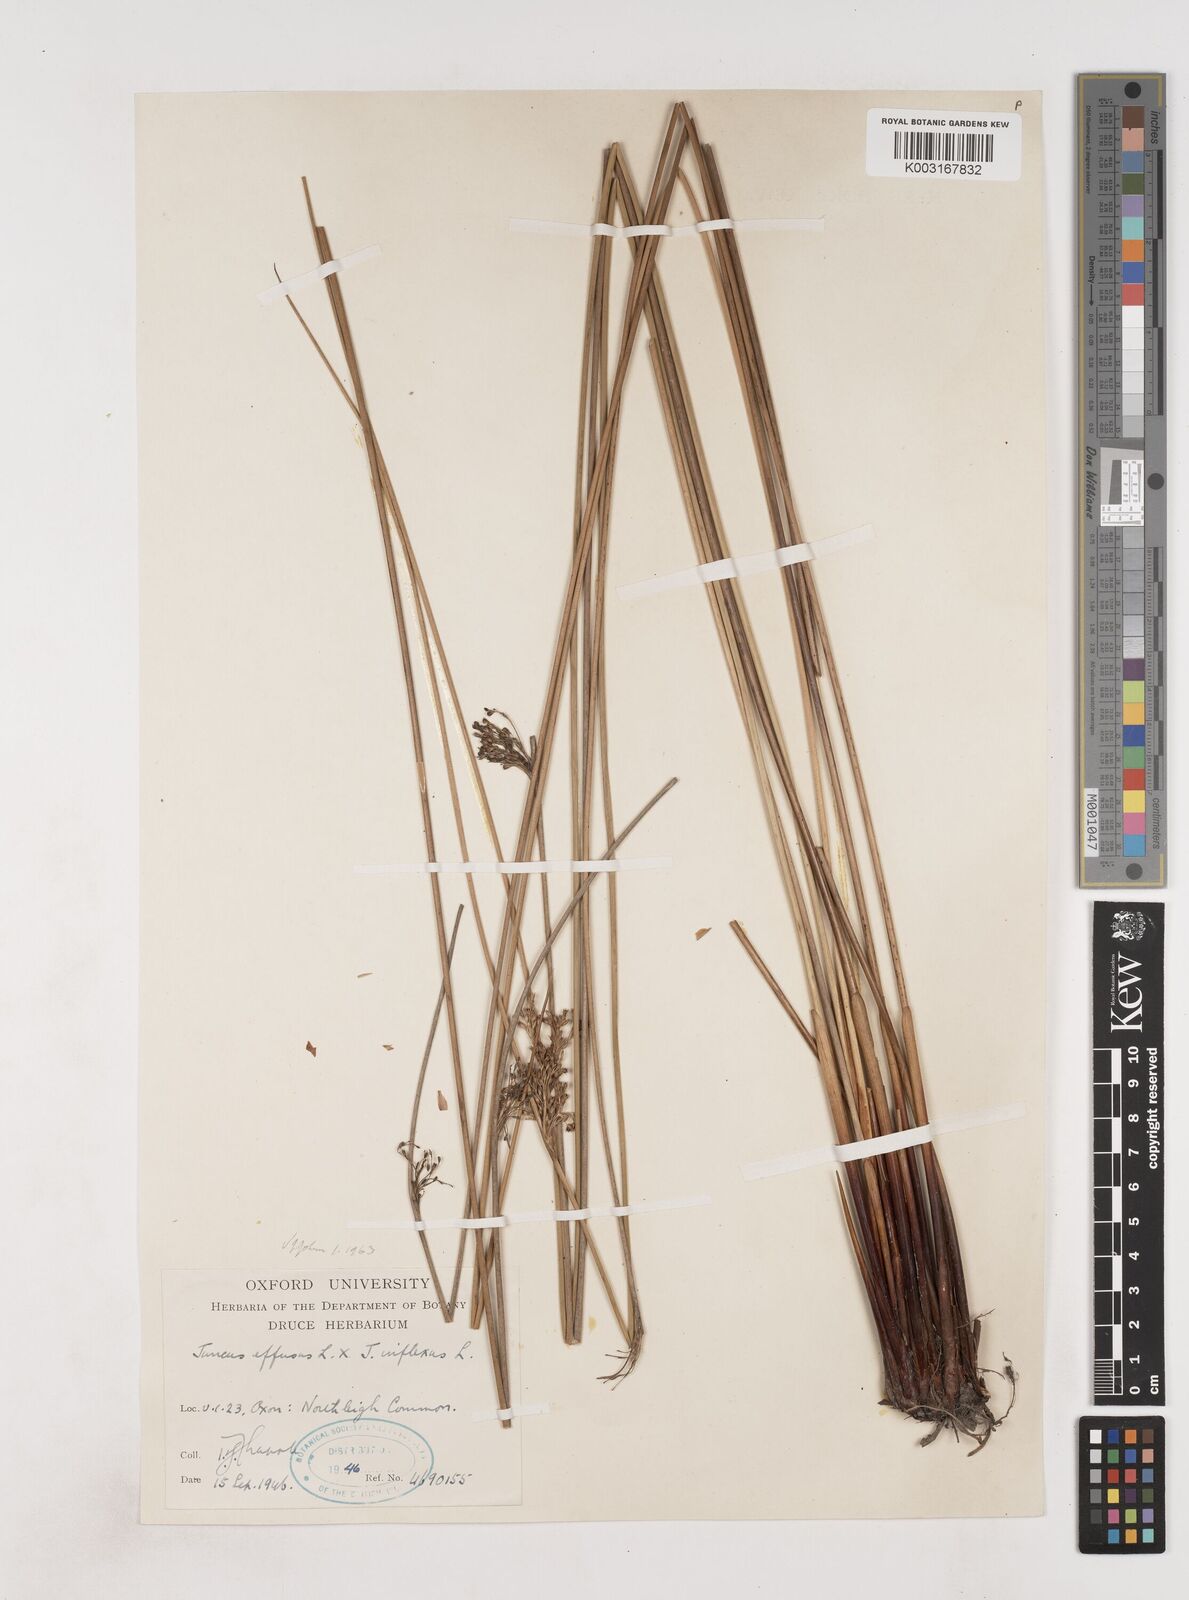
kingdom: Plantae
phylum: Tracheophyta
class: Liliopsida
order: Poales
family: Juncaceae
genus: Juncus
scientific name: Juncus effusus
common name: Soft rush
